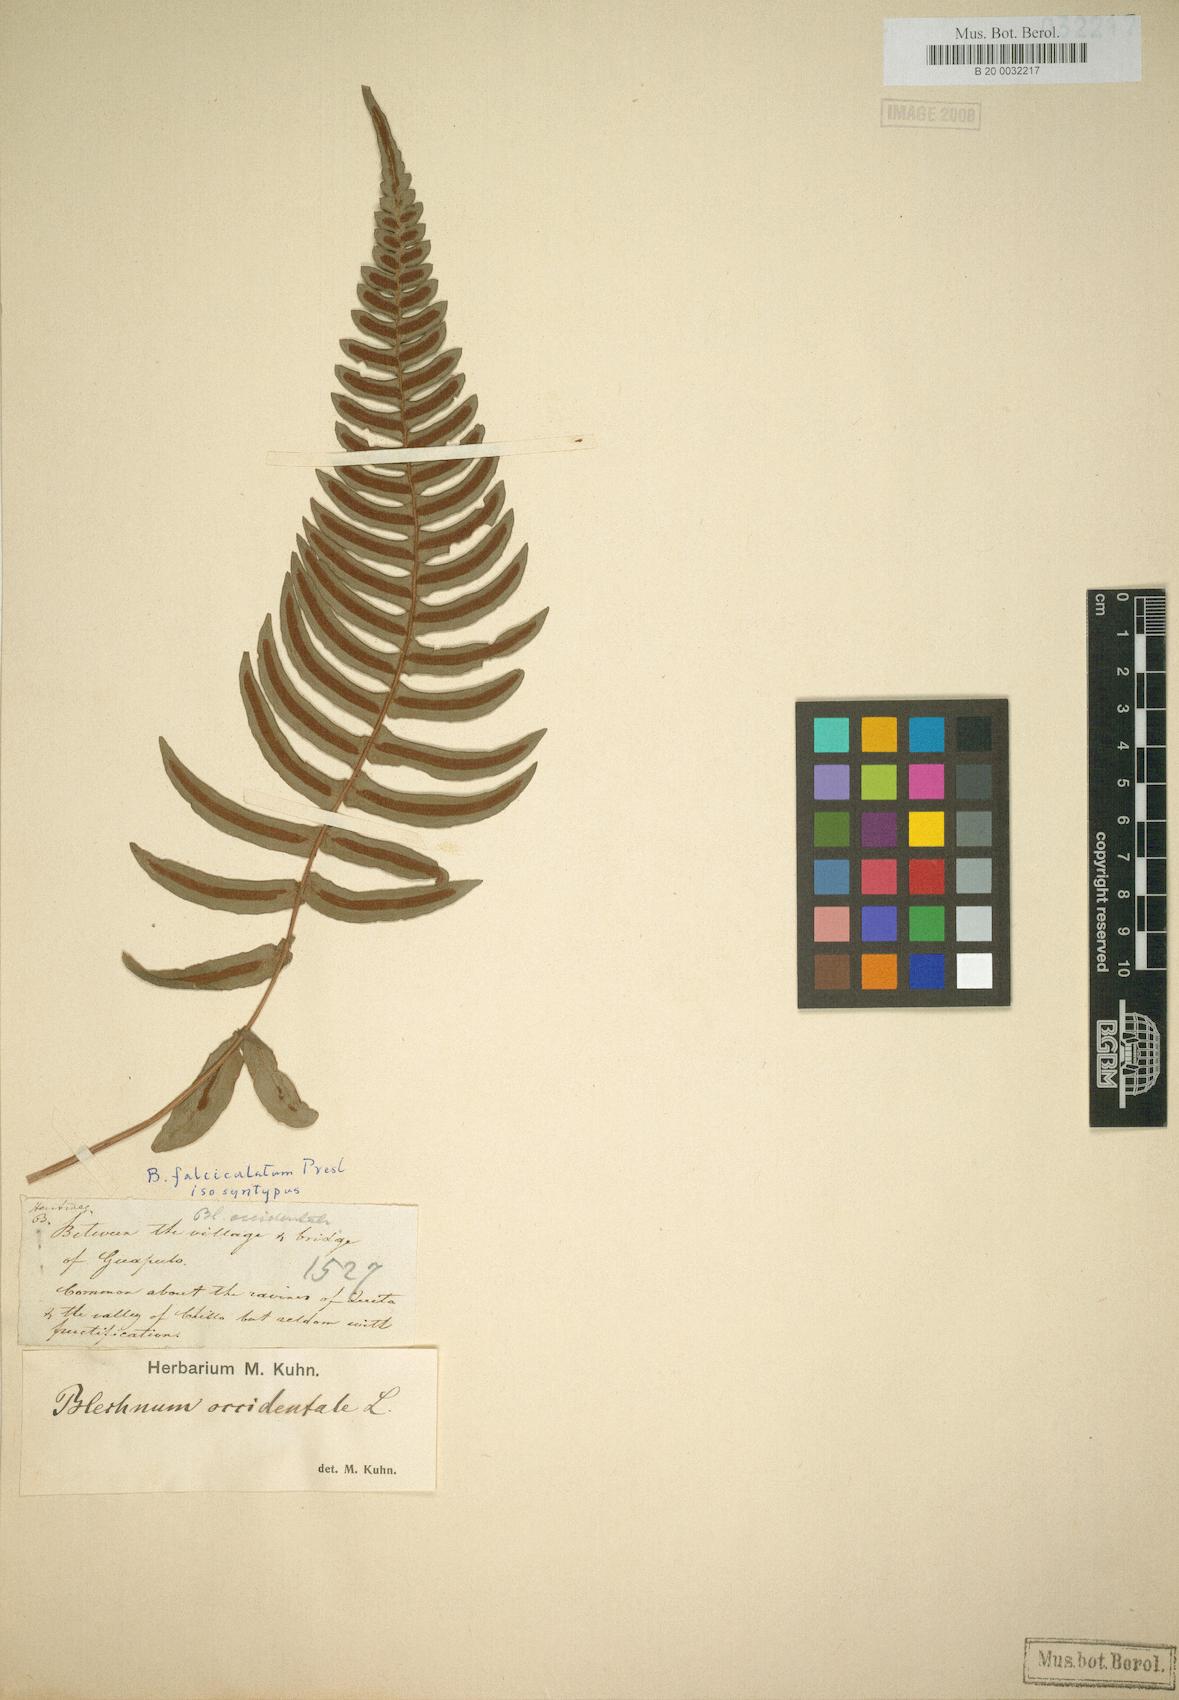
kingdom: Plantae
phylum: Tracheophyta
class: Polypodiopsida
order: Polypodiales
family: Blechnaceae
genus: Blechnum
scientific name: Blechnum occidentale
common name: Hammock fern
